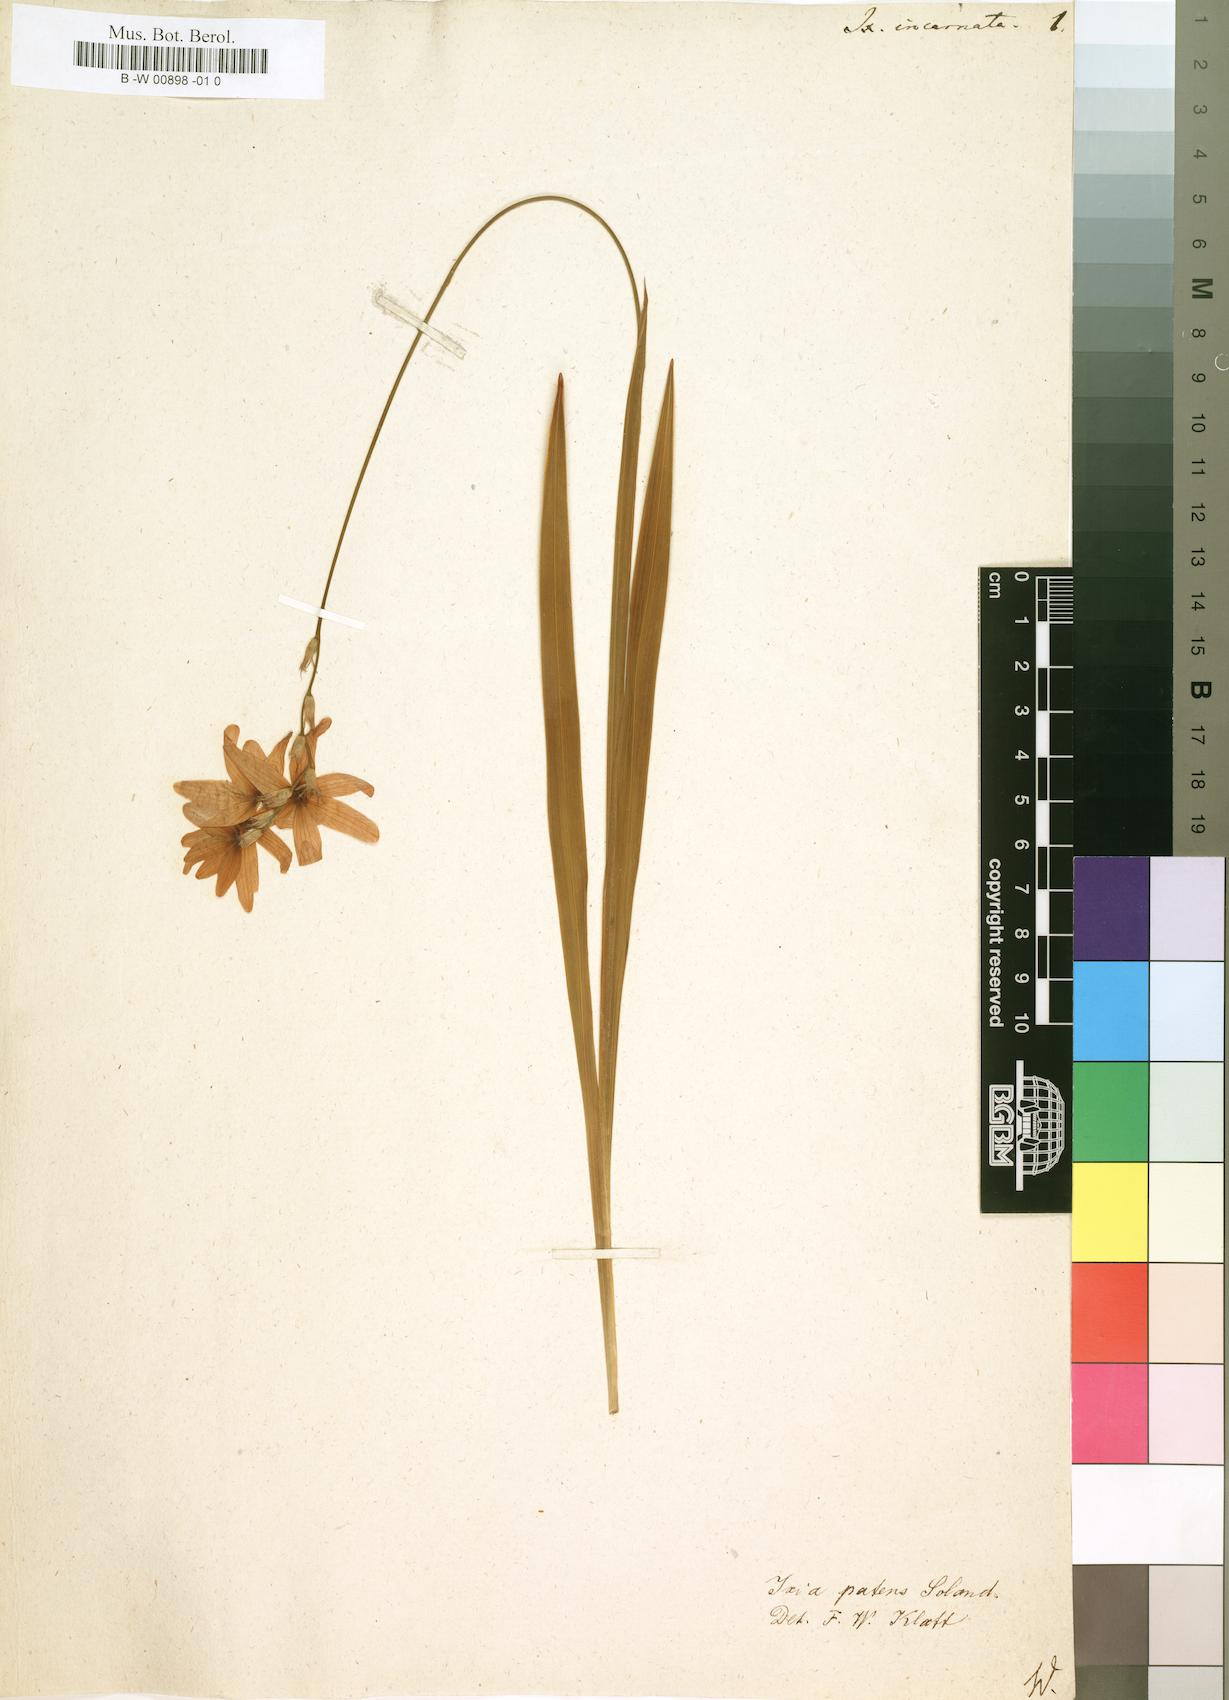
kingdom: Plantae
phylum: Tracheophyta
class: Liliopsida
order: Asparagales
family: Iridaceae
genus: Ixia
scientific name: Ixia latifolia
